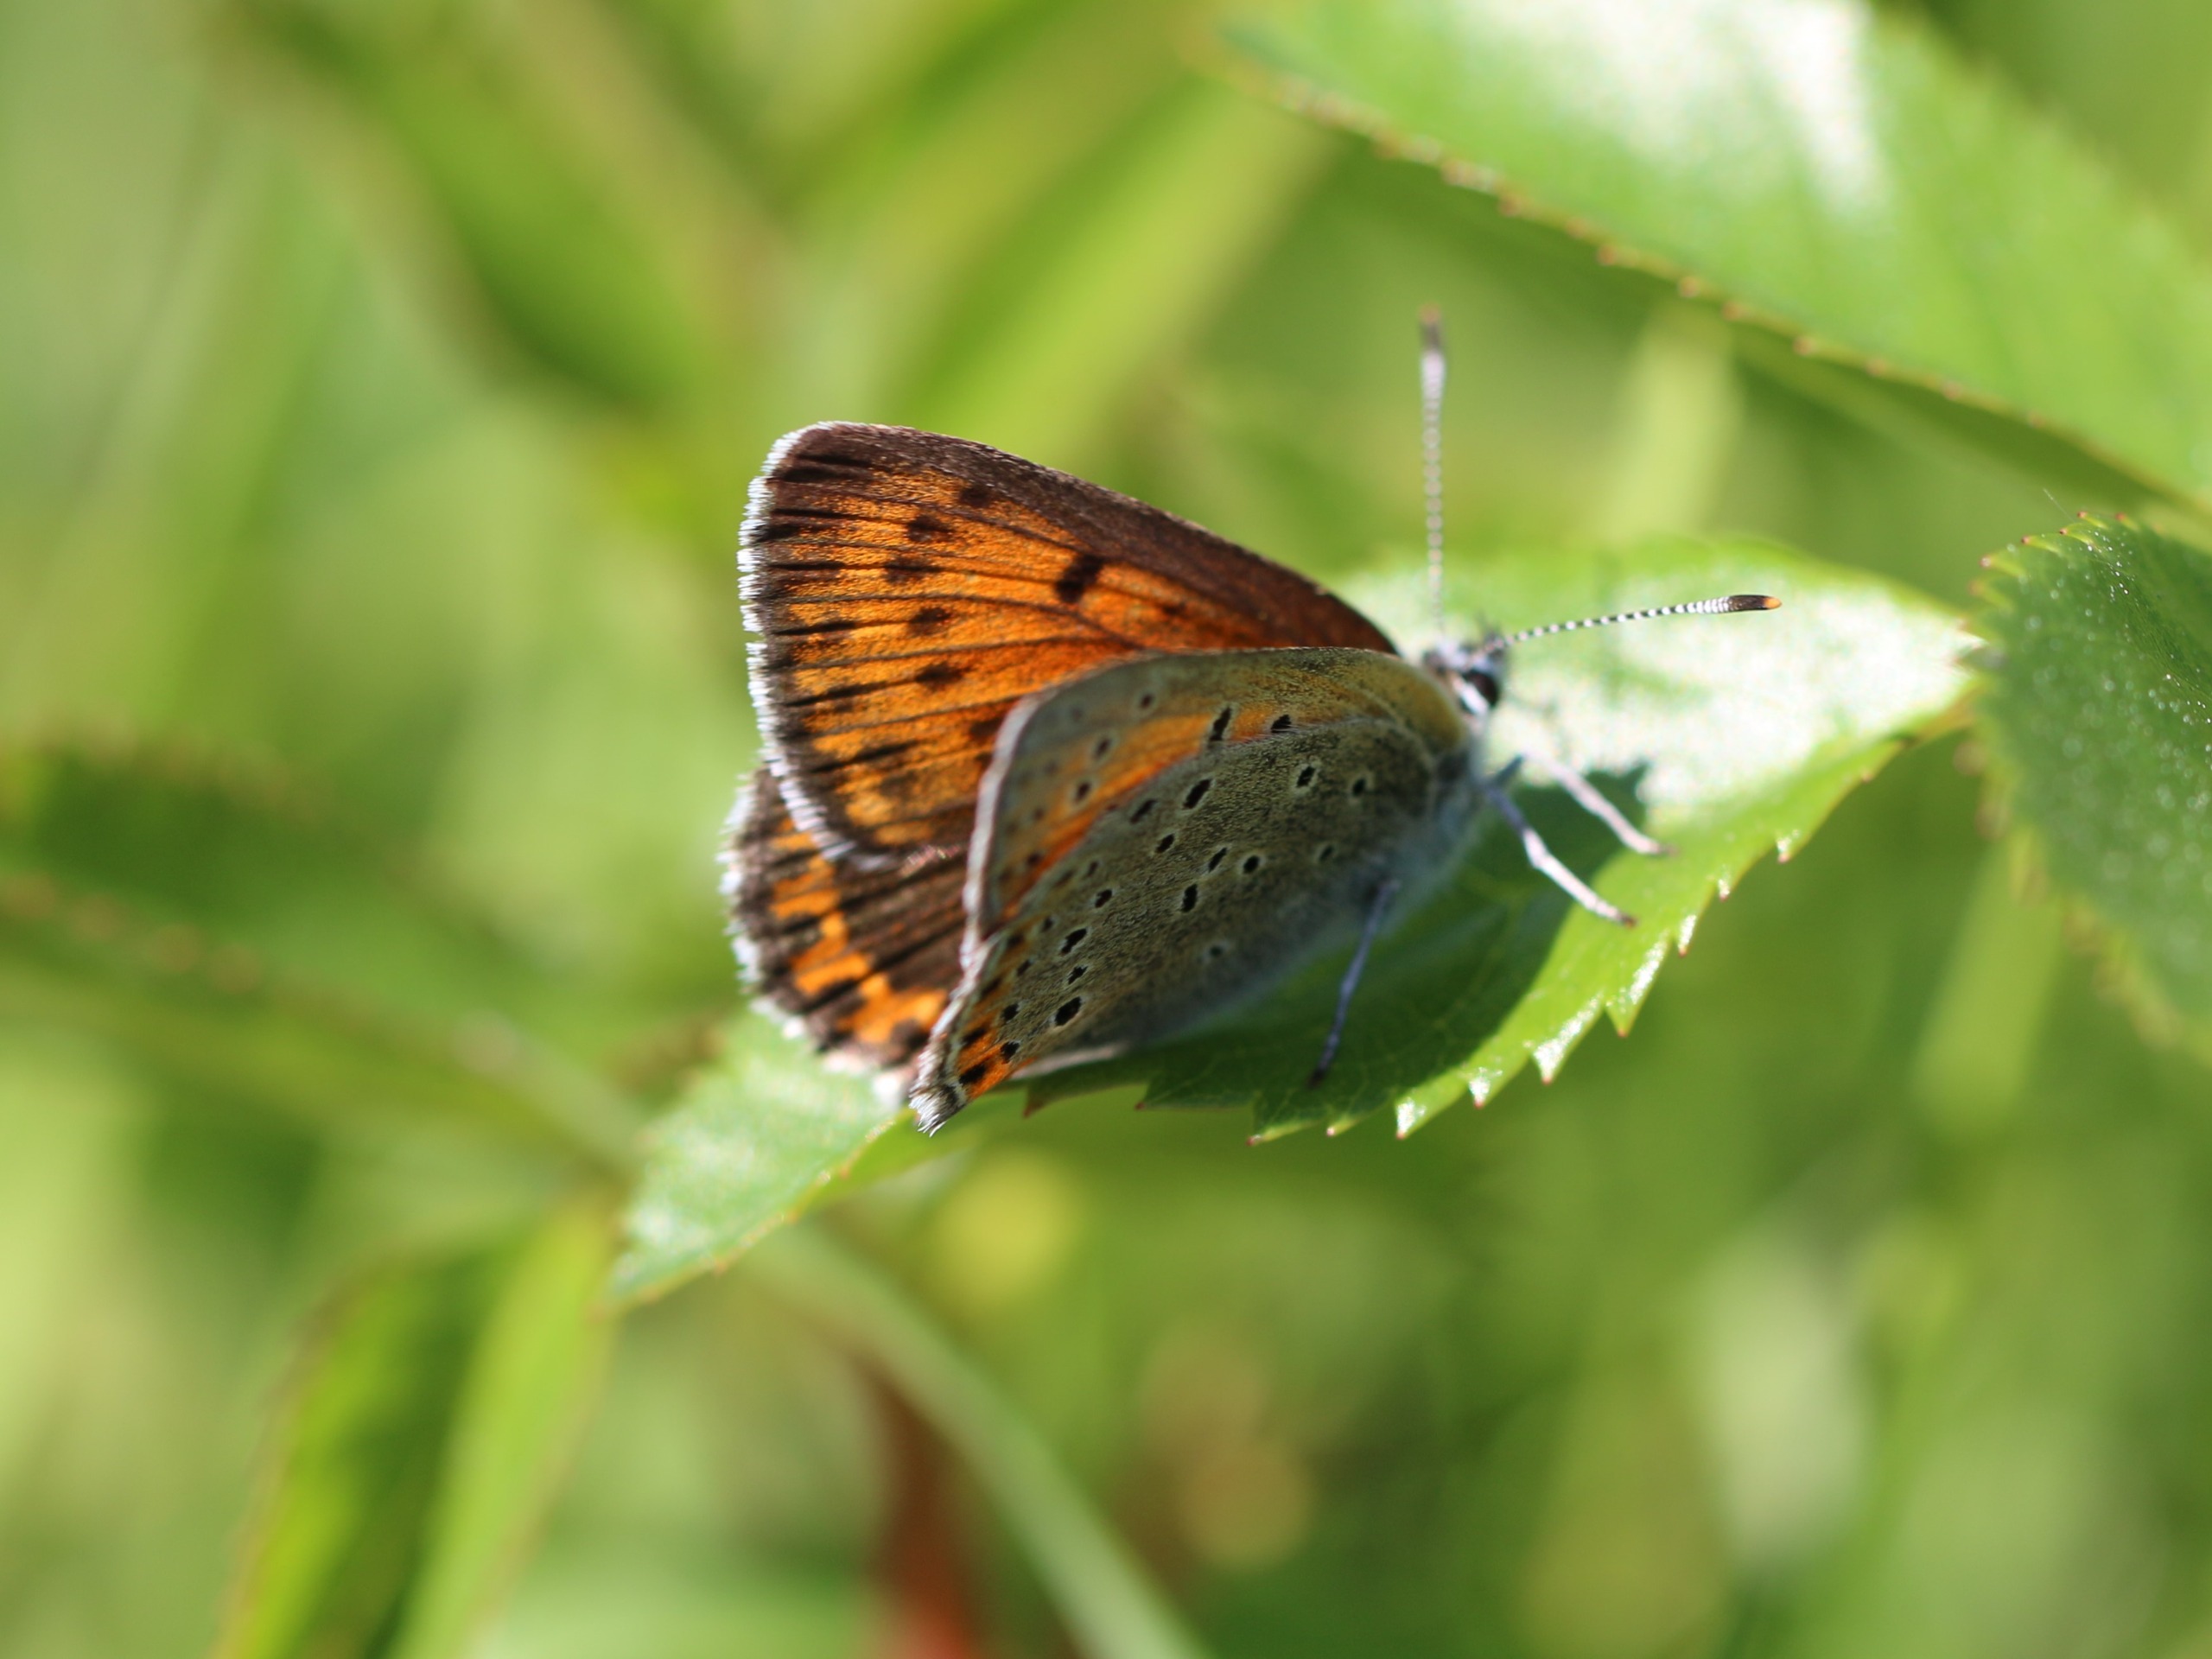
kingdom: Animalia
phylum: Arthropoda
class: Insecta
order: Lepidoptera
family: Lycaenidae
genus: Palaeochrysophanus
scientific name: Palaeochrysophanus hippothoe
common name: Violetrandet ildfugl
